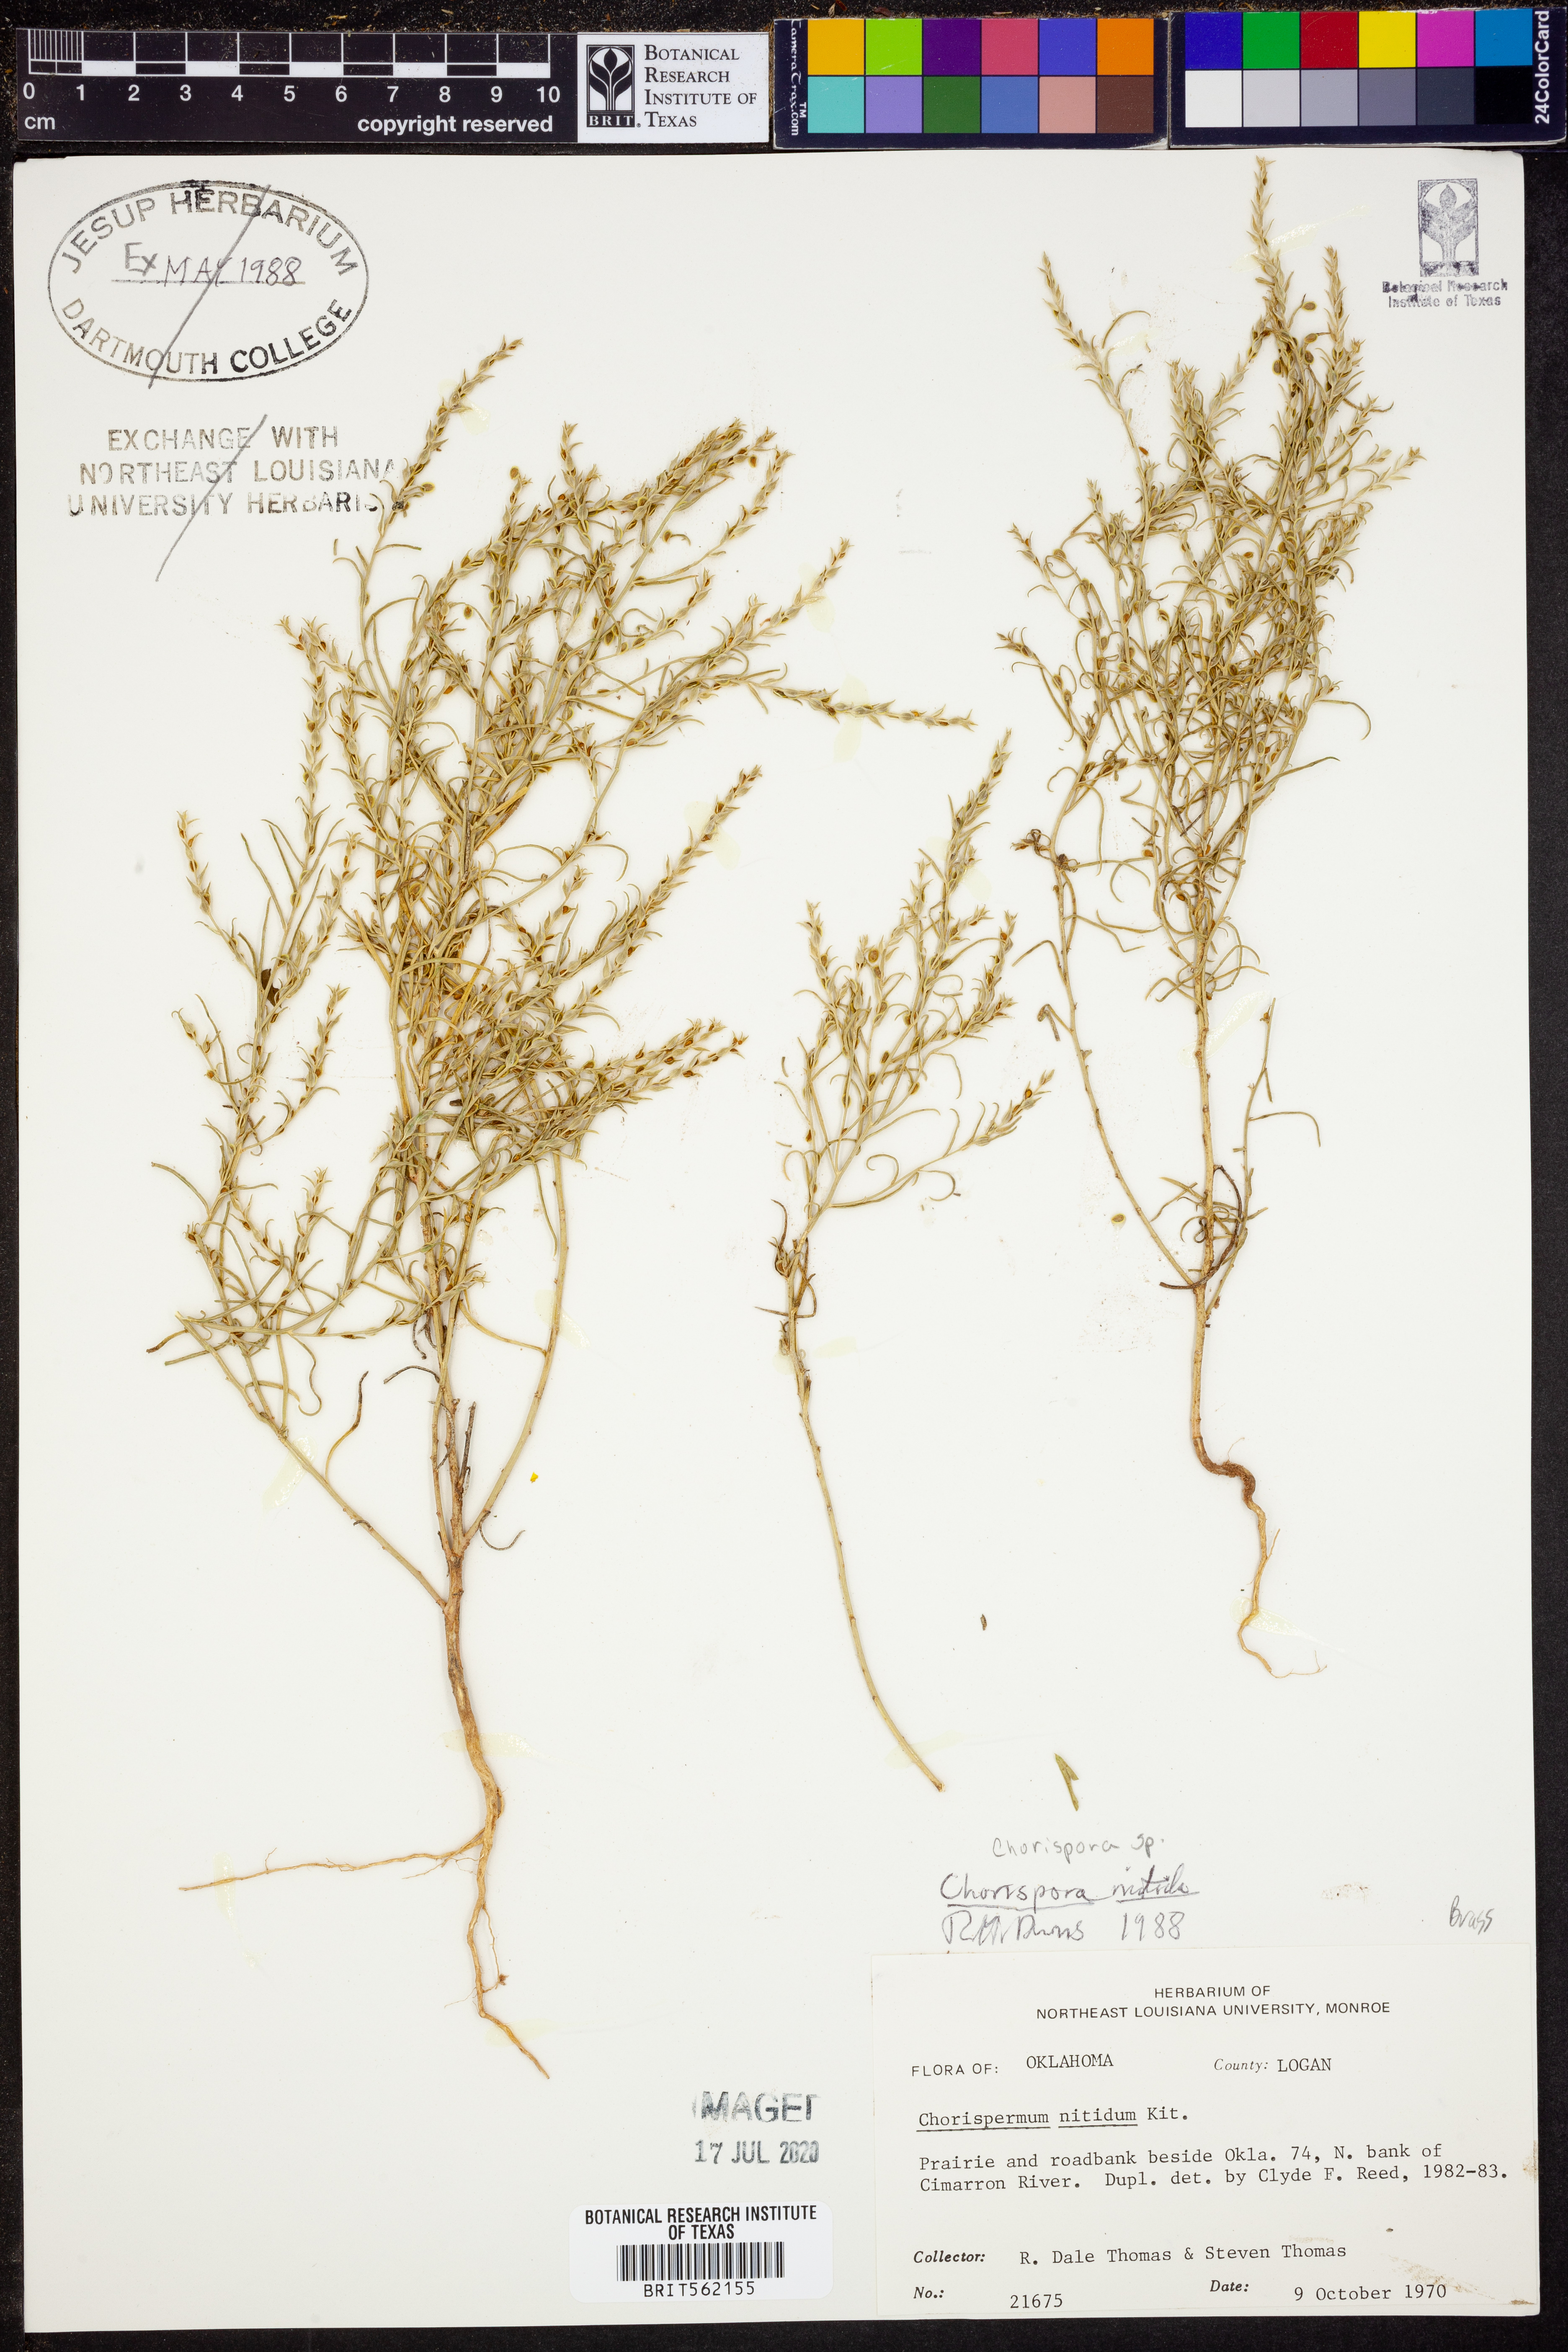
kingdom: Plantae
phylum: Tracheophyta
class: Magnoliopsida
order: Brassicales
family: Brassicaceae
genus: Chorispora
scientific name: Chorispora
